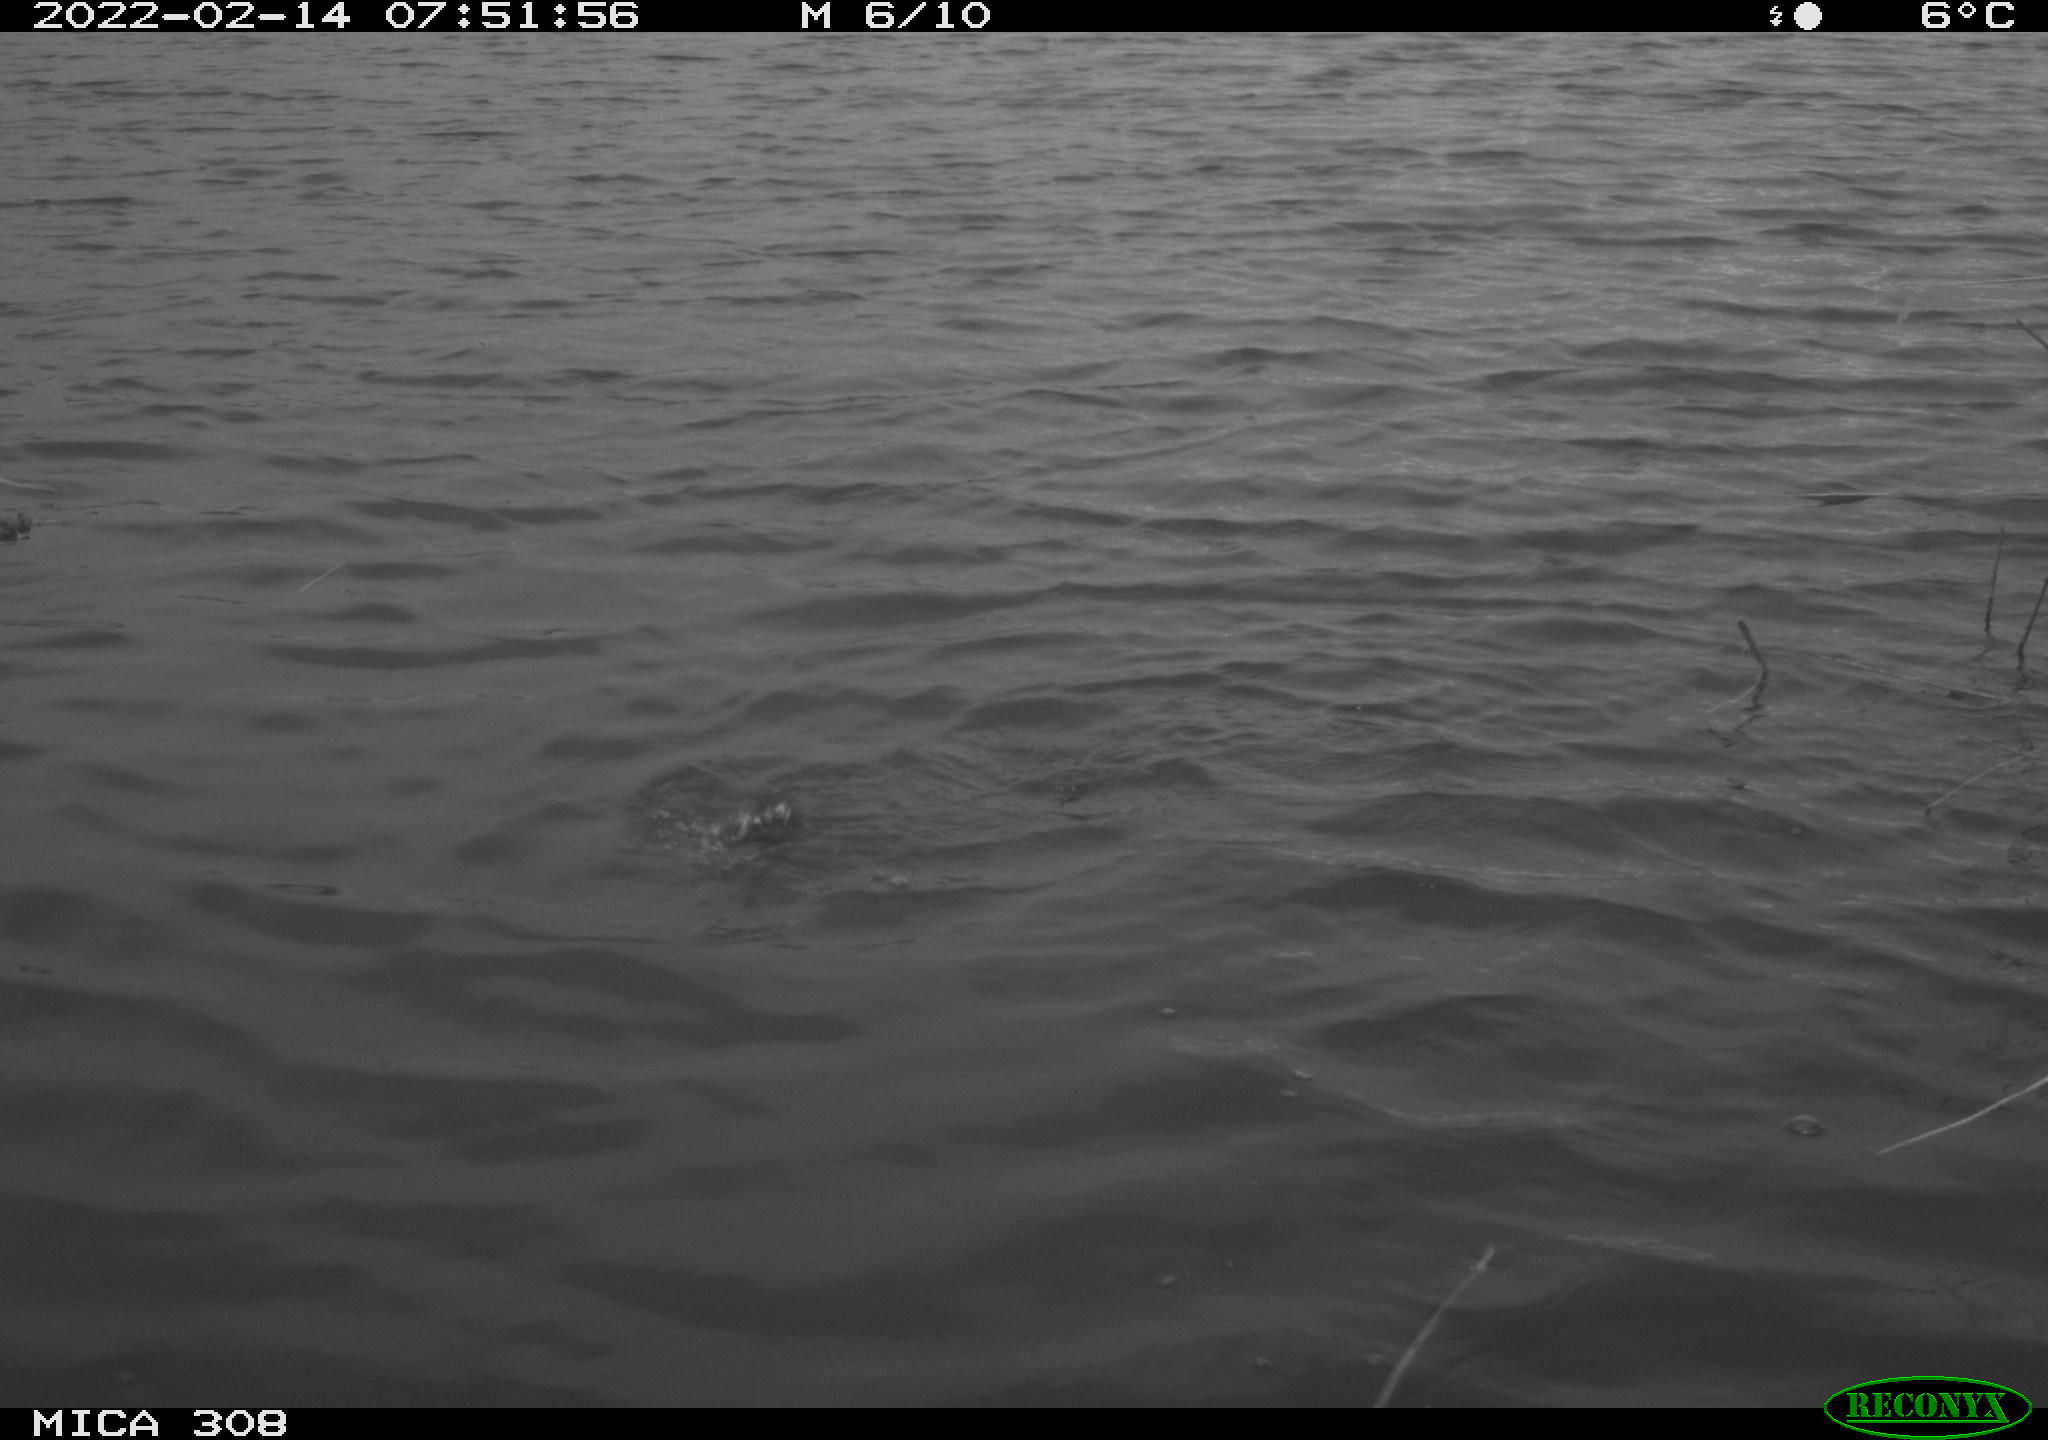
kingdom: Animalia
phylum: Chordata
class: Aves
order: Suliformes
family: Phalacrocoracidae
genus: Phalacrocorax
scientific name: Phalacrocorax carbo
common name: Great cormorant
